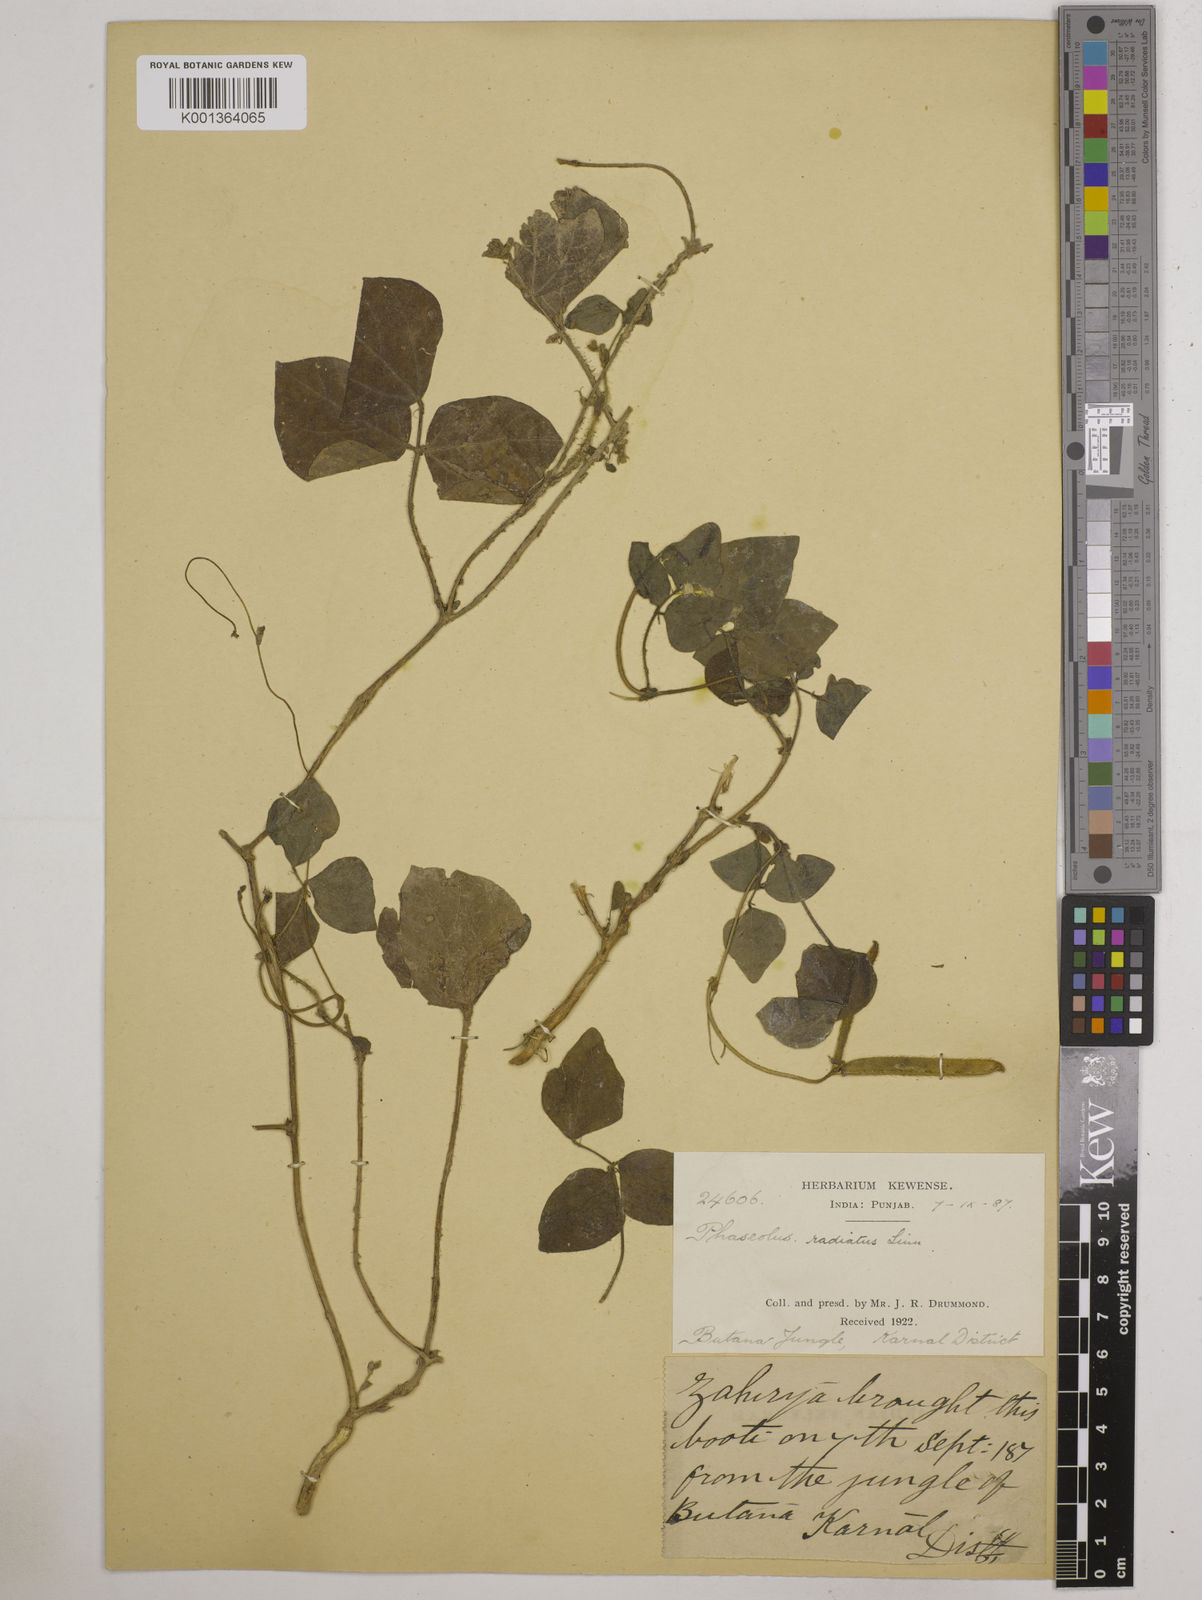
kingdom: Plantae
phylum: Tracheophyta
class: Magnoliopsida
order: Fabales
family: Fabaceae
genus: Vigna
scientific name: Vigna radiata
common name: Mung-bean
